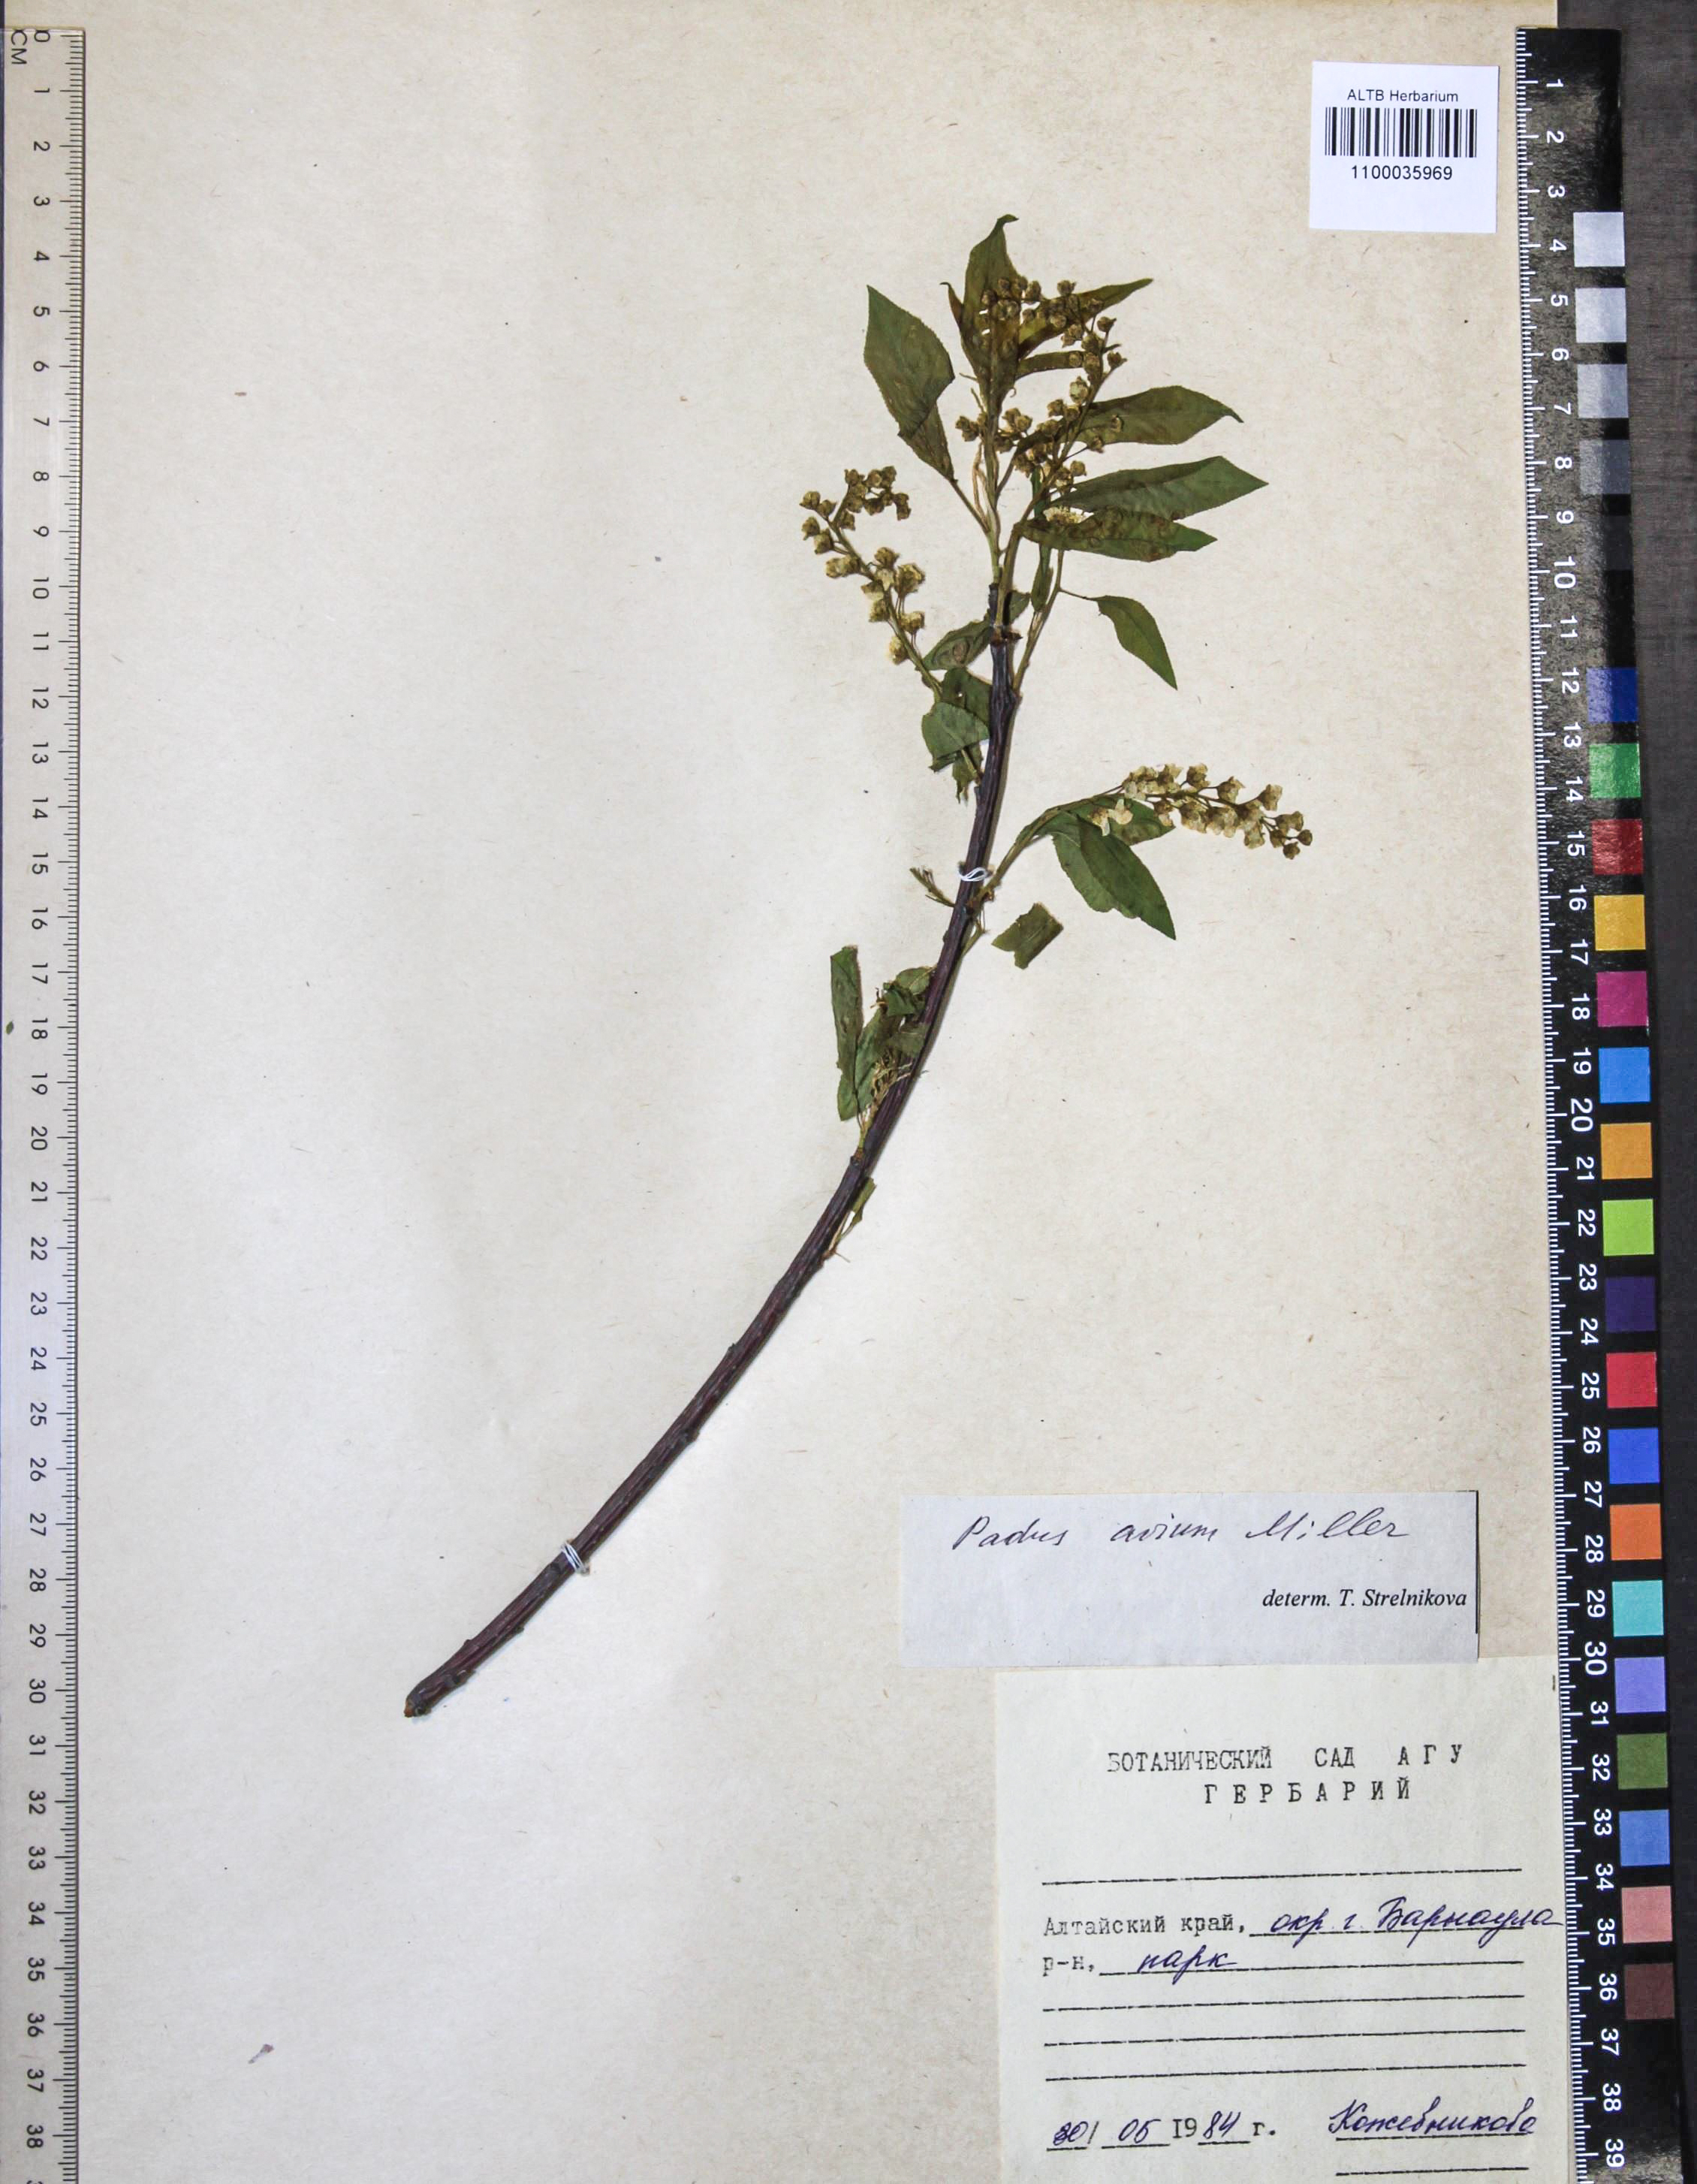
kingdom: Plantae
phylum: Tracheophyta
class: Magnoliopsida
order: Rosales
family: Rosaceae
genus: Prunus
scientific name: Prunus padus
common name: Bird cherry
